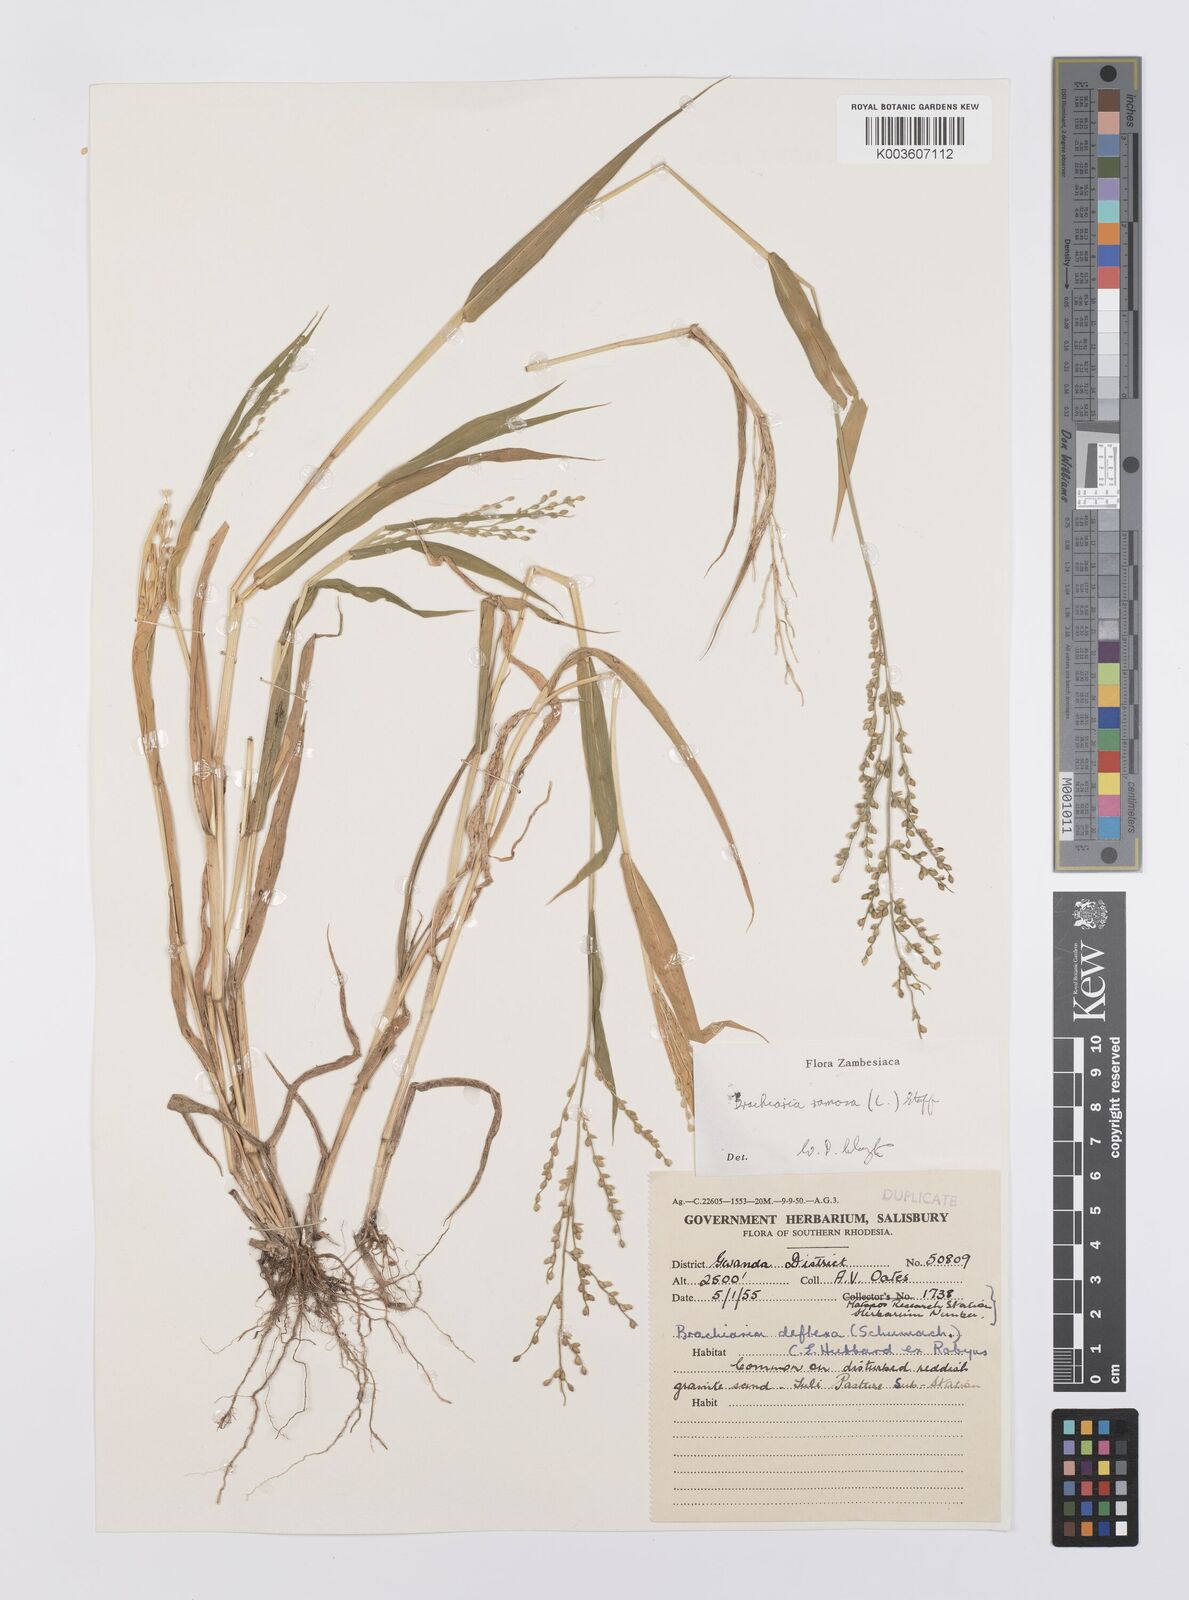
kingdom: Plantae
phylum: Tracheophyta
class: Liliopsida
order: Poales
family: Poaceae
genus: Urochloa
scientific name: Urochloa ramosa
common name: Browntop millet
